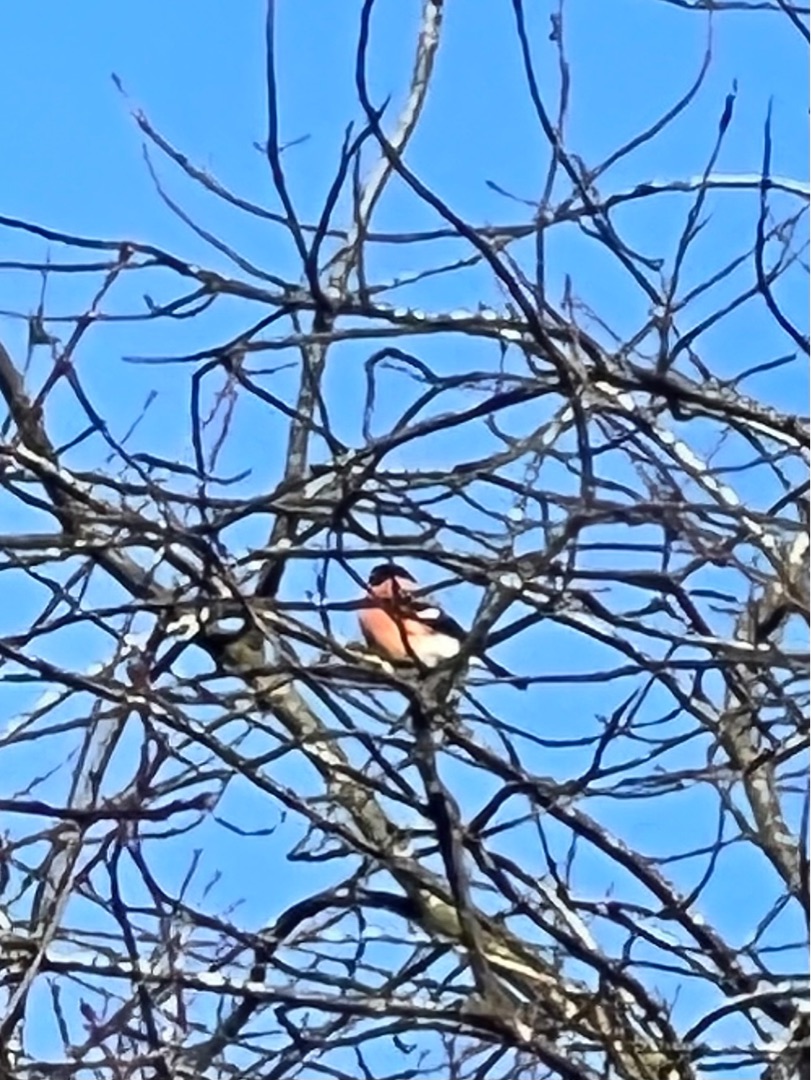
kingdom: Animalia
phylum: Chordata
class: Aves
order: Passeriformes
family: Fringillidae
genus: Pyrrhula
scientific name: Pyrrhula pyrrhula
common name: Dompap
